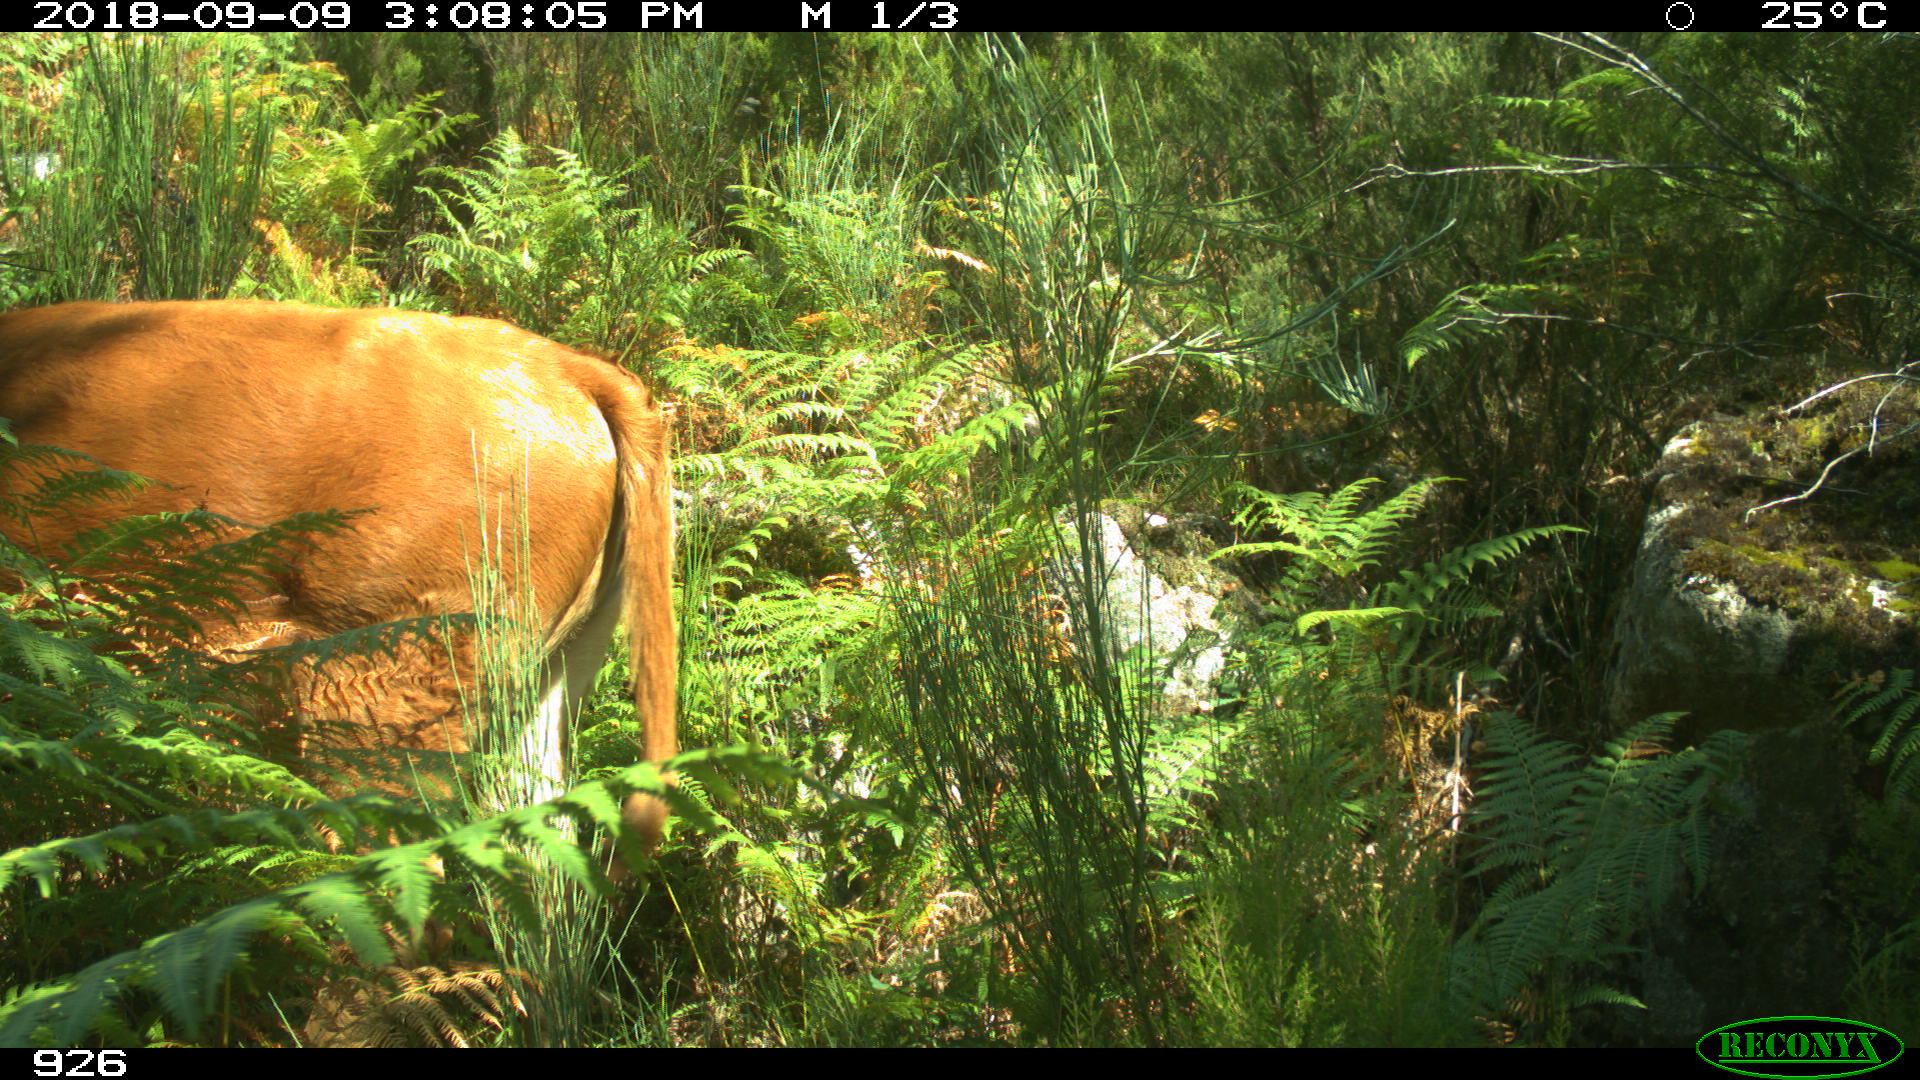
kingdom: Animalia
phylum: Chordata
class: Mammalia
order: Artiodactyla
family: Bovidae
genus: Bos
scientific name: Bos taurus
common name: Domesticated cattle
